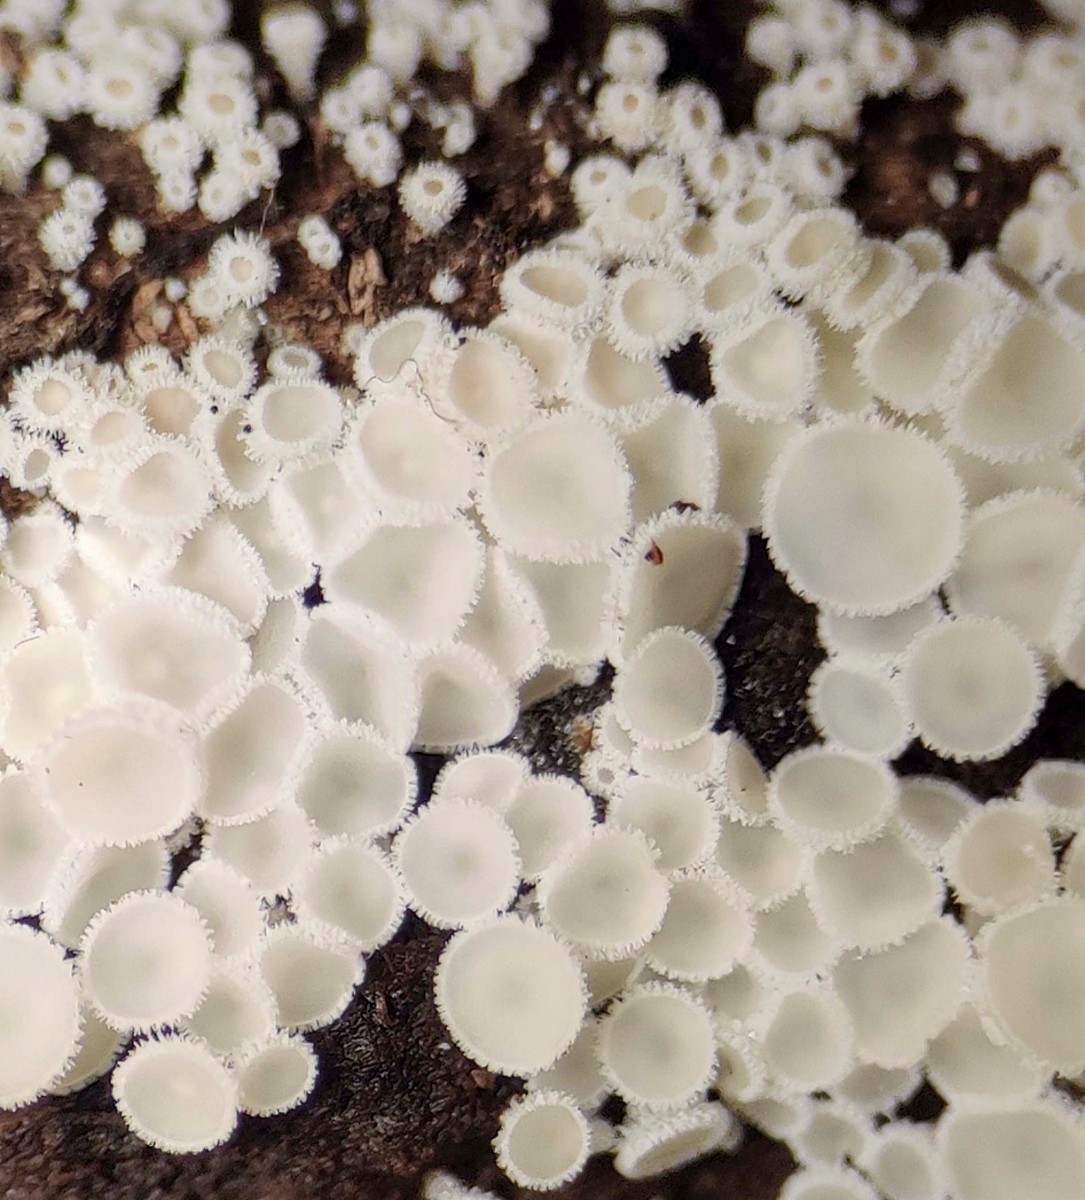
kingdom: Fungi
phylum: Ascomycota
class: Leotiomycetes
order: Helotiales
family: Lachnaceae
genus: Dasyscyphella
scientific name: Dasyscyphella nivea
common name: hvid frynseskive
